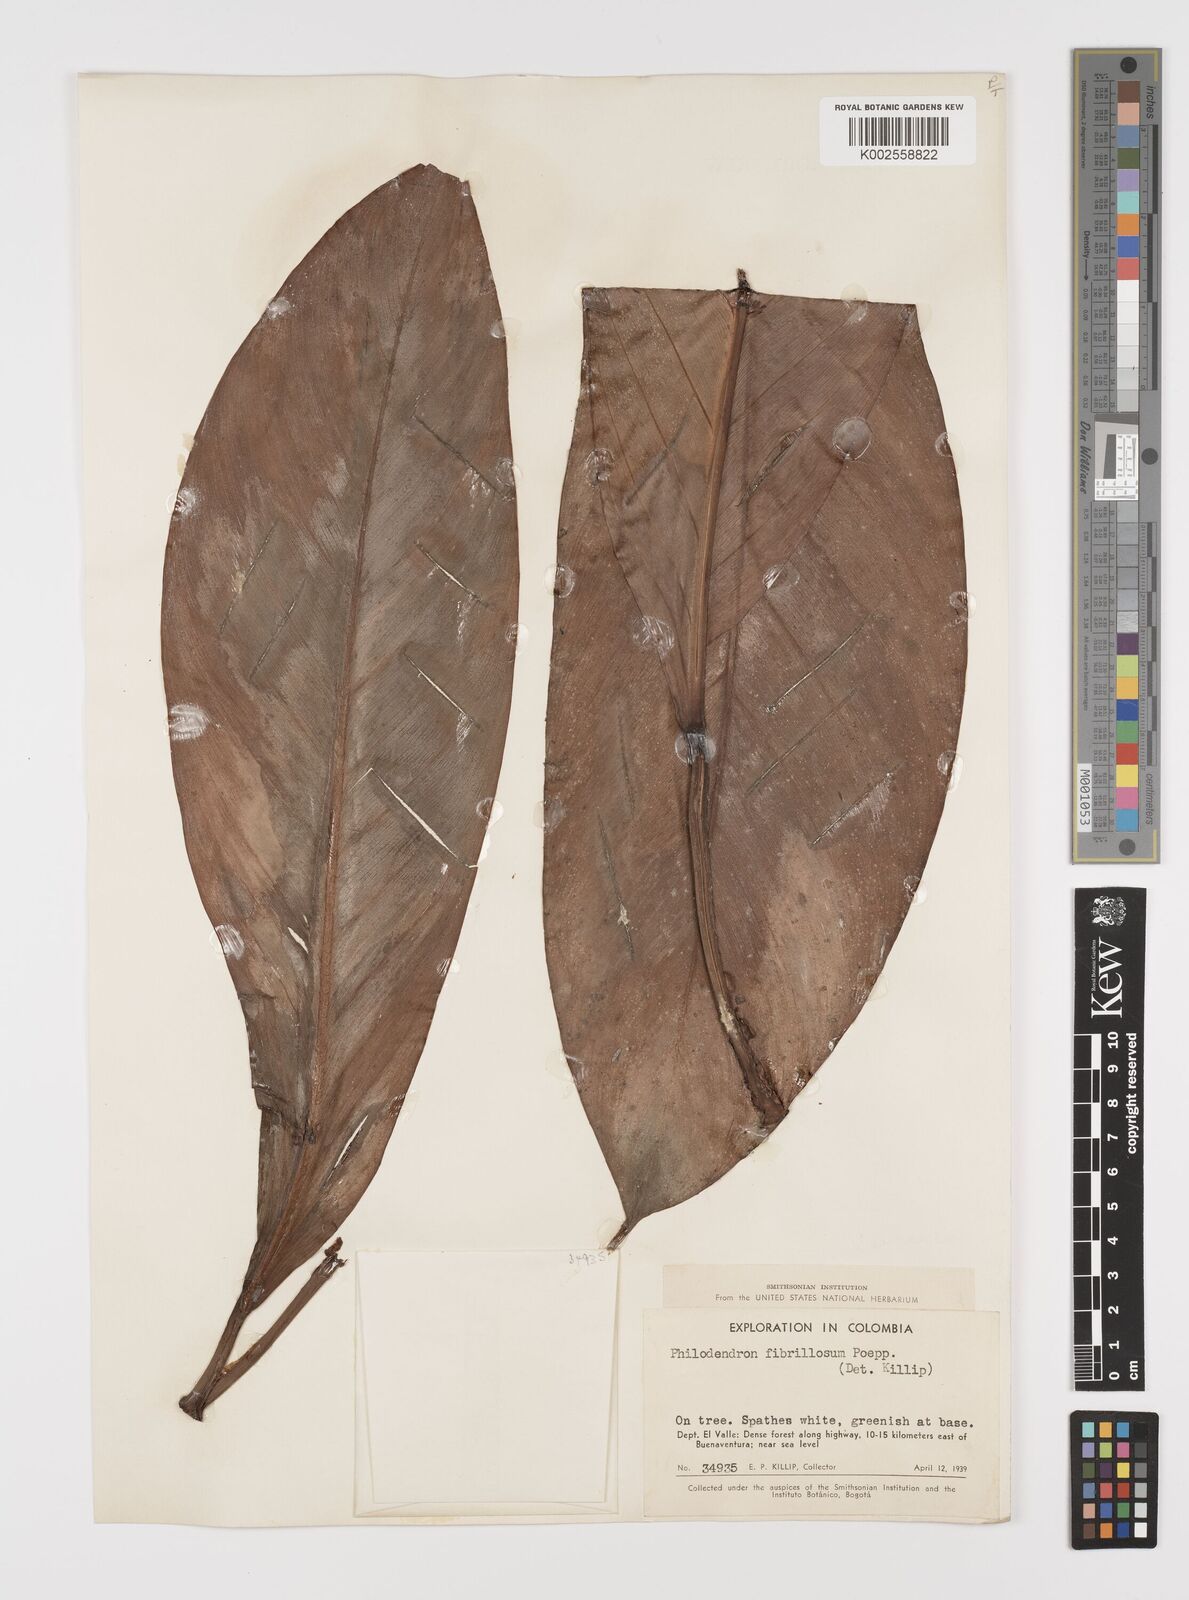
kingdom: Plantae
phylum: Tracheophyta
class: Liliopsida
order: Alismatales
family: Araceae
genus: Philodendron
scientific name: Philodendron fibrillosum
